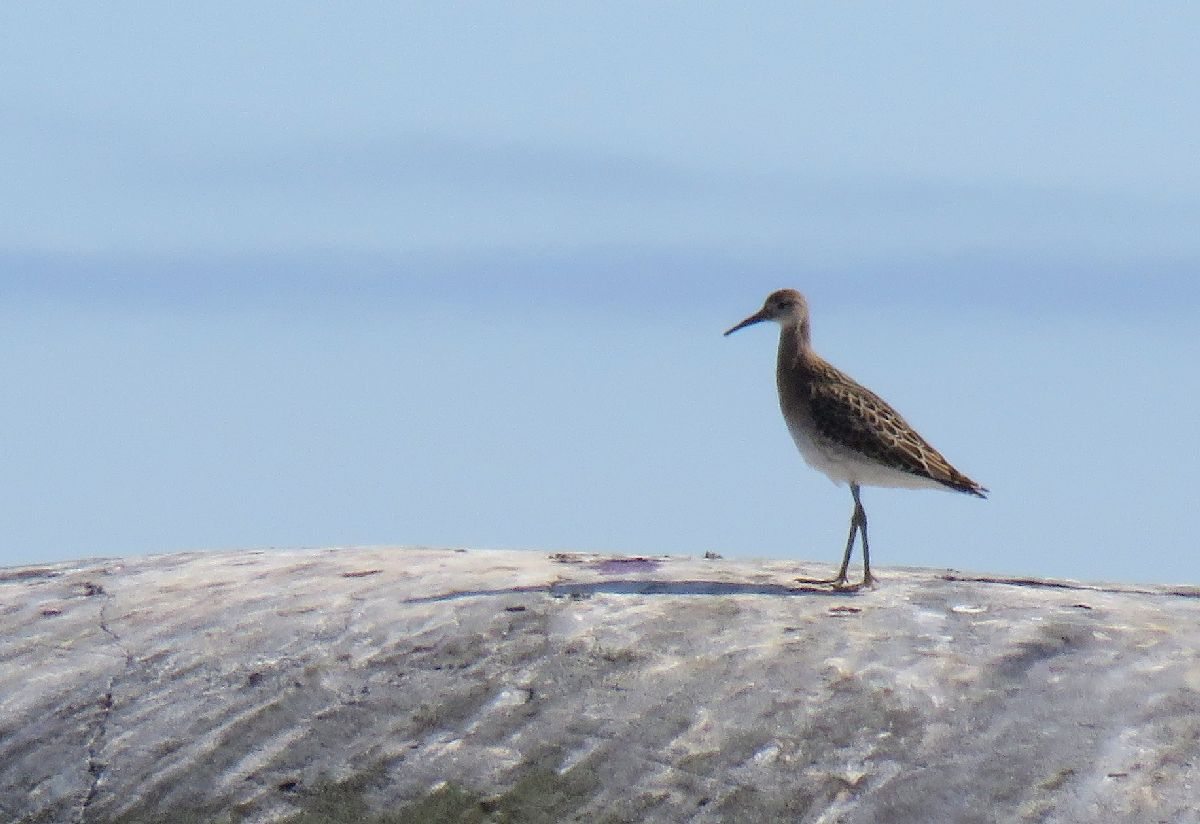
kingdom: Animalia
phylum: Chordata
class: Aves
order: Charadriiformes
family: Scolopacidae
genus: Tringa
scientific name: Tringa nebularia
